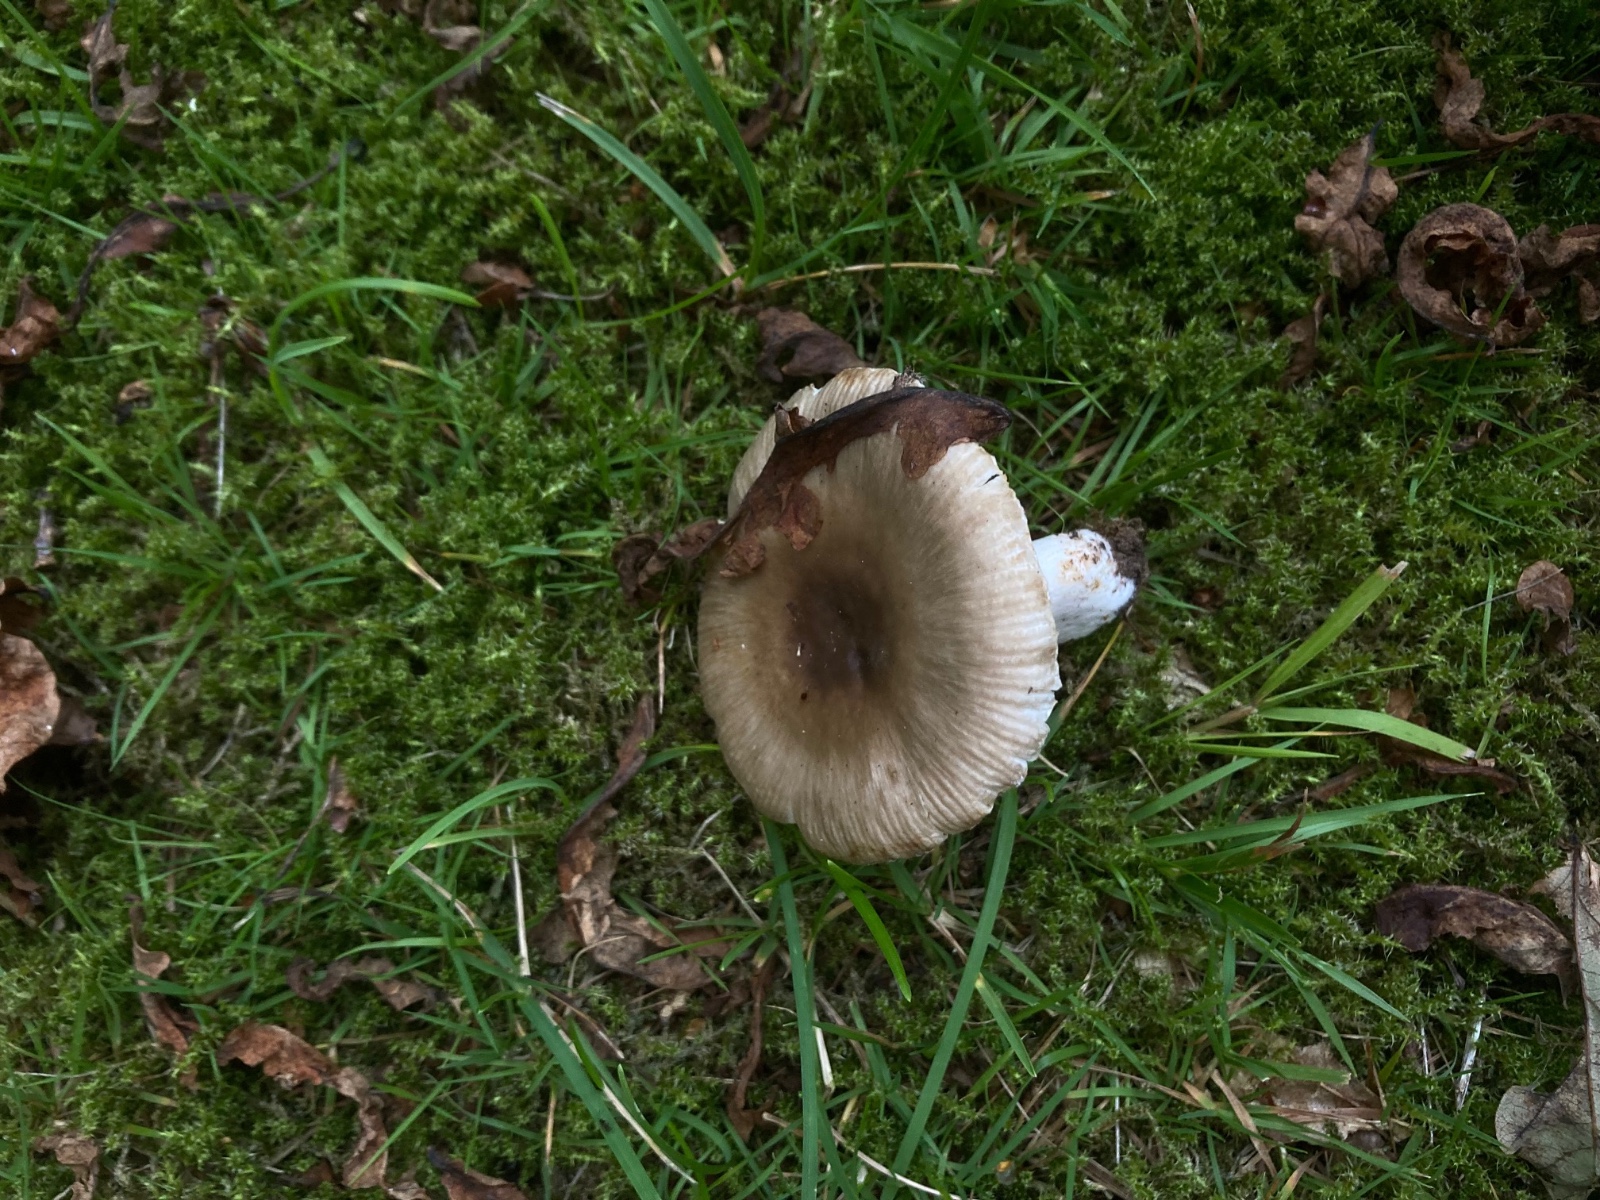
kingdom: Fungi
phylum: Basidiomycota
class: Agaricomycetes
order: Russulales
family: Russulaceae
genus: Russula
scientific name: Russula amoenolens
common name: skarp kam-skørhat
